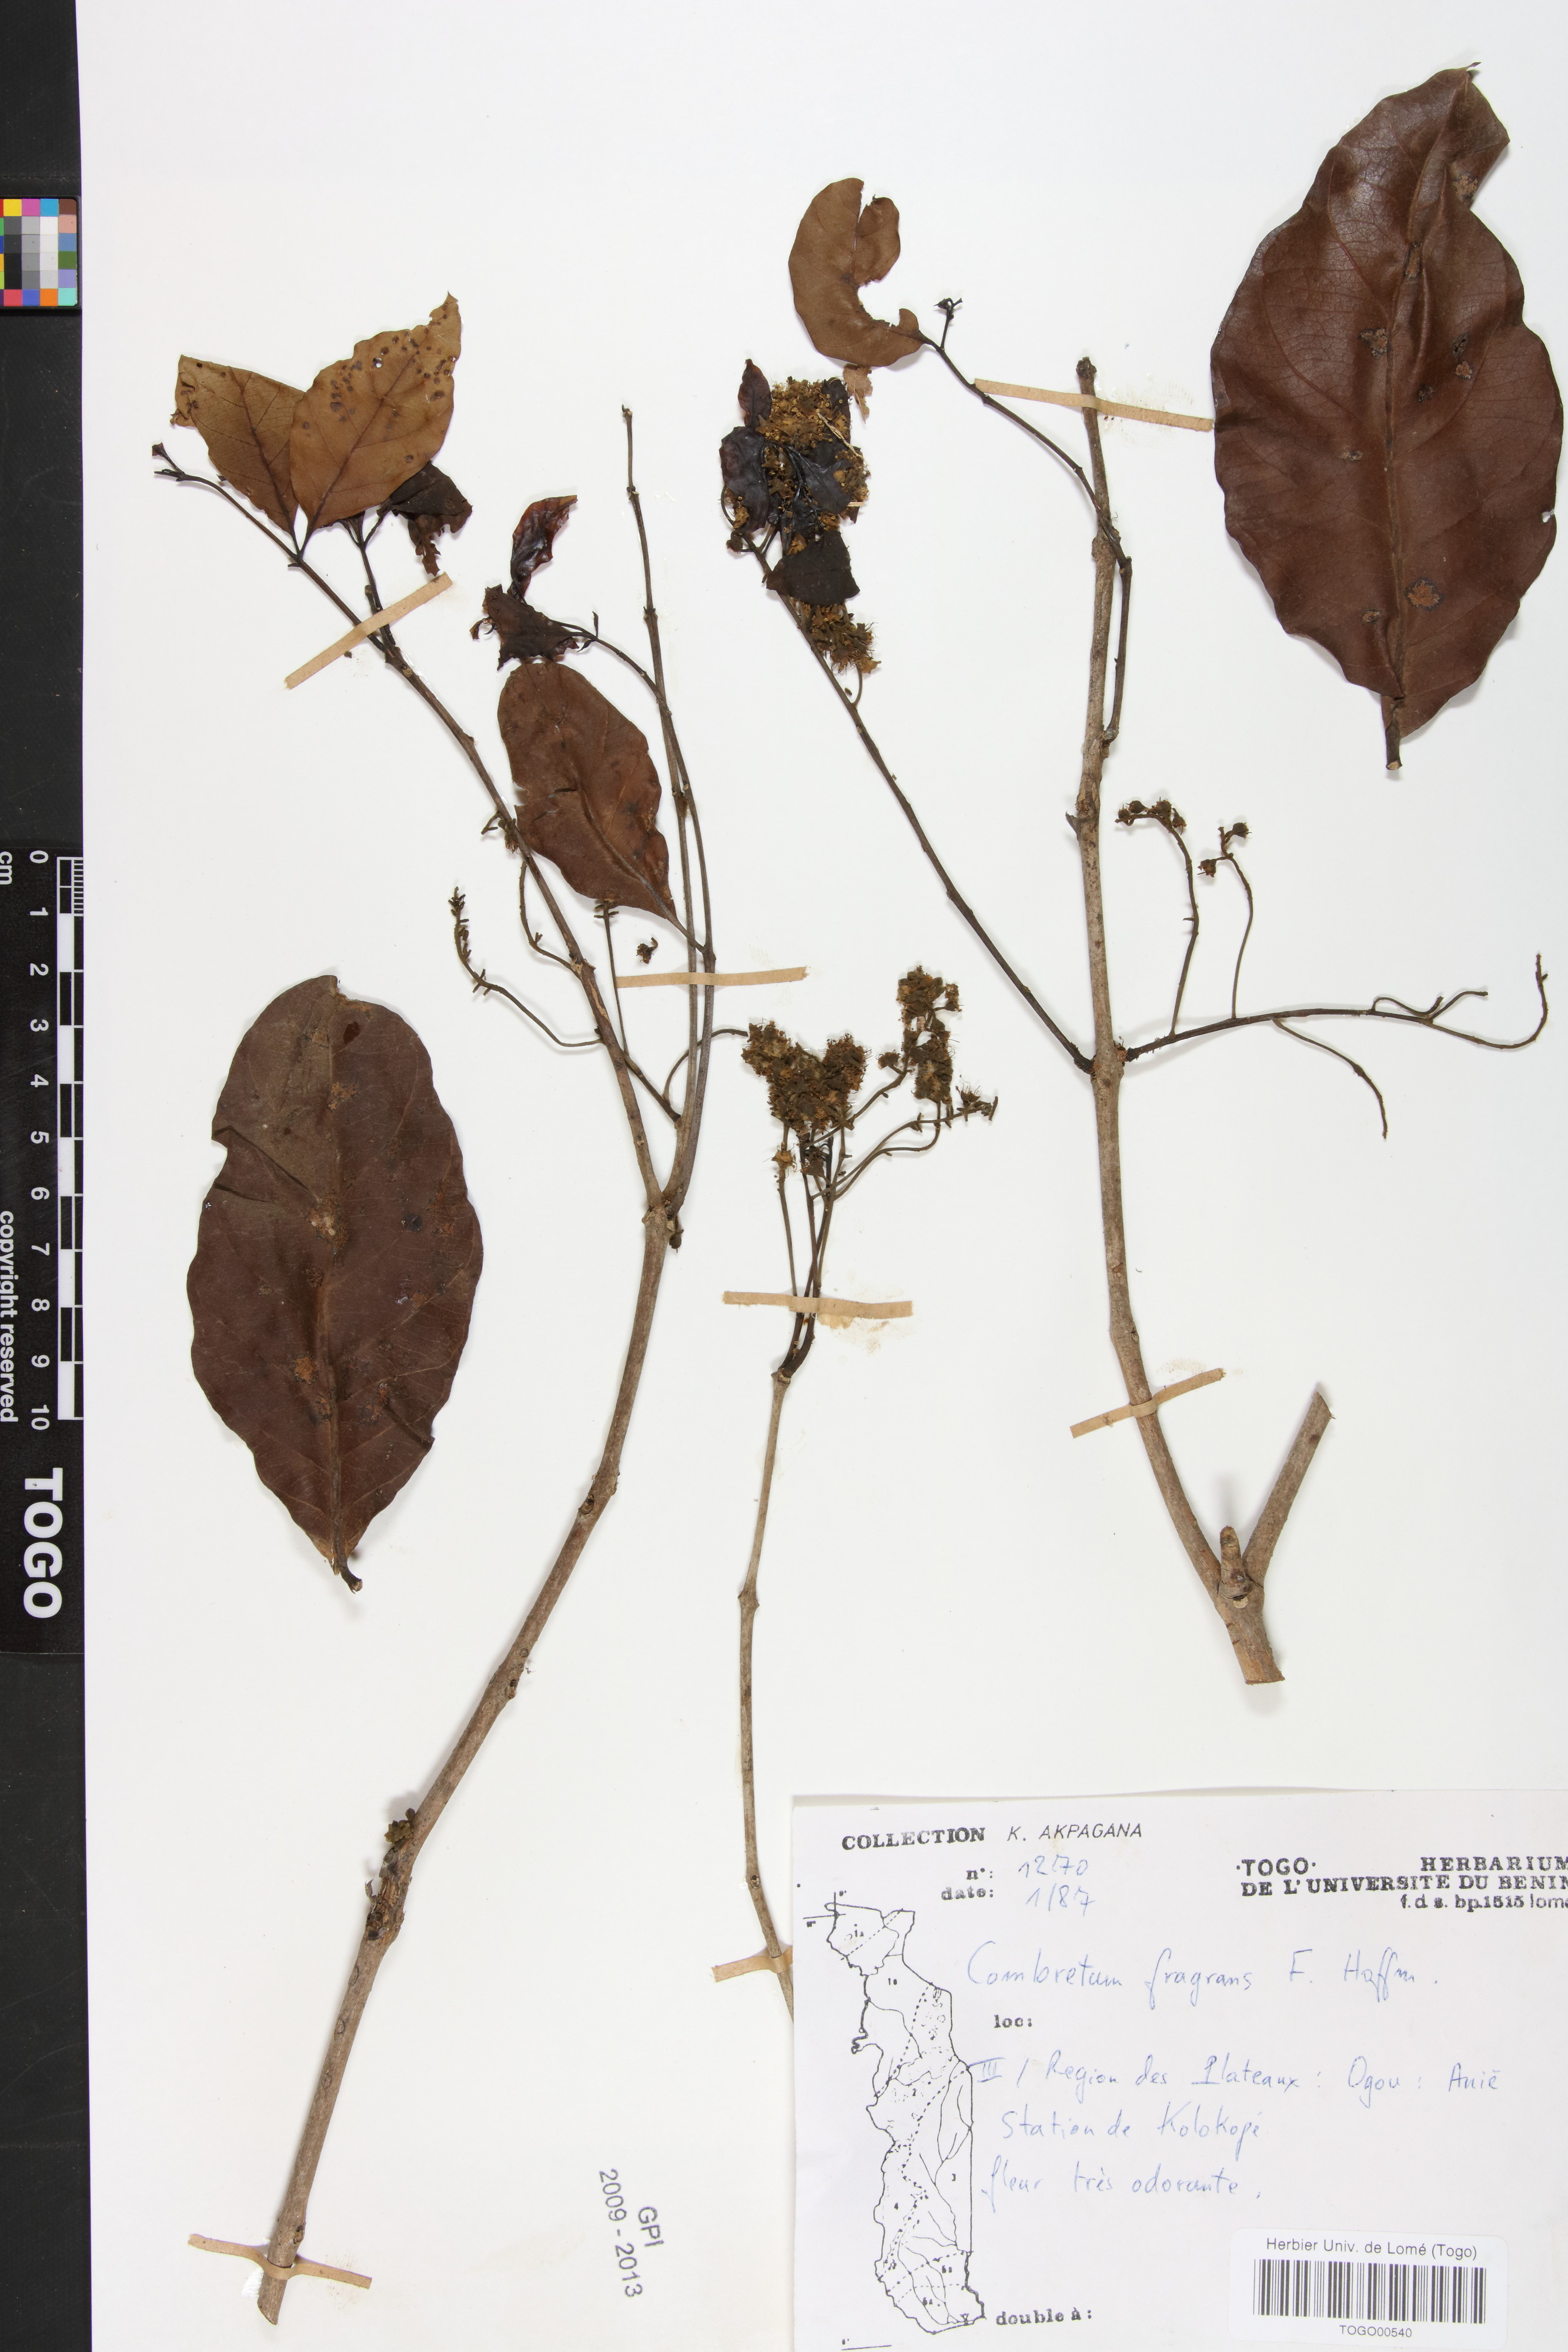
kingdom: Plantae
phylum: Tracheophyta
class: Magnoliopsida
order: Myrtales
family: Combretaceae
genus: Combretum
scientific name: Combretum adenogonium
